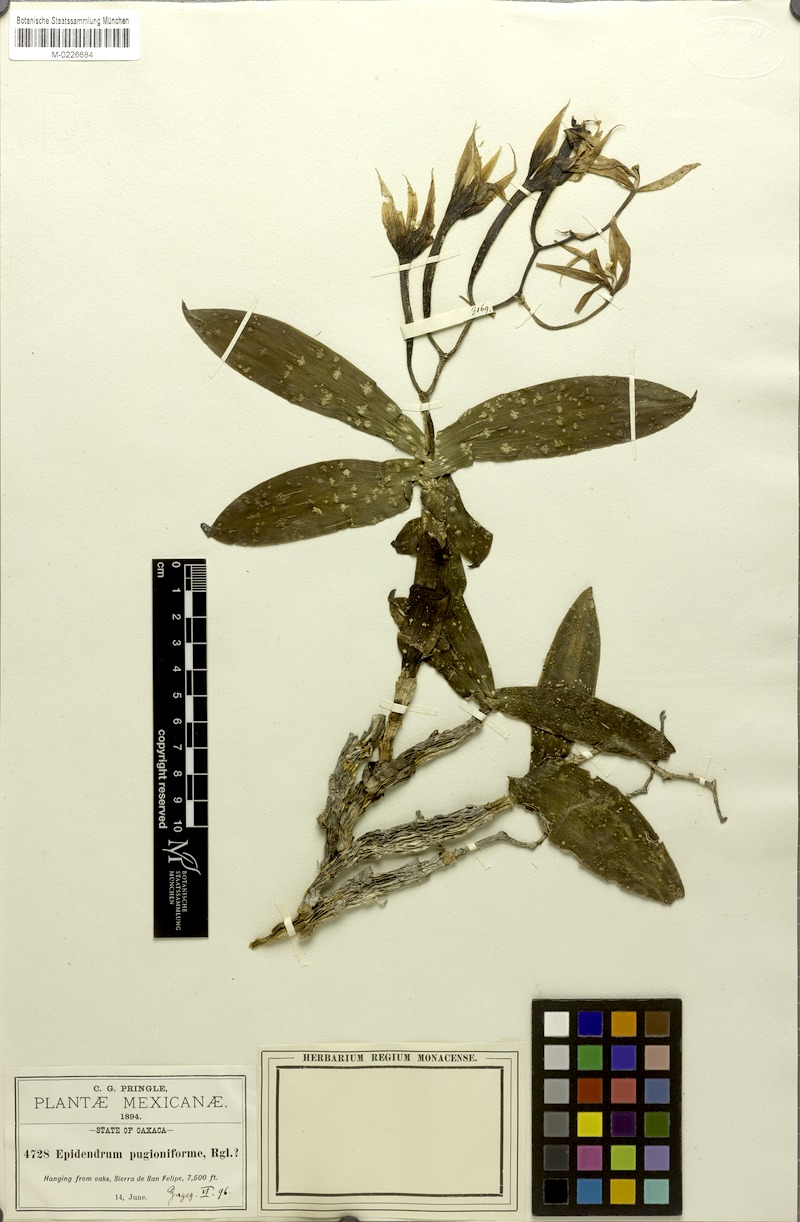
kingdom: Plantae
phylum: Tracheophyta
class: Liliopsida
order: Asparagales
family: Orchidaceae
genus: Epidendrum
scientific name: Epidendrum hagsateri
